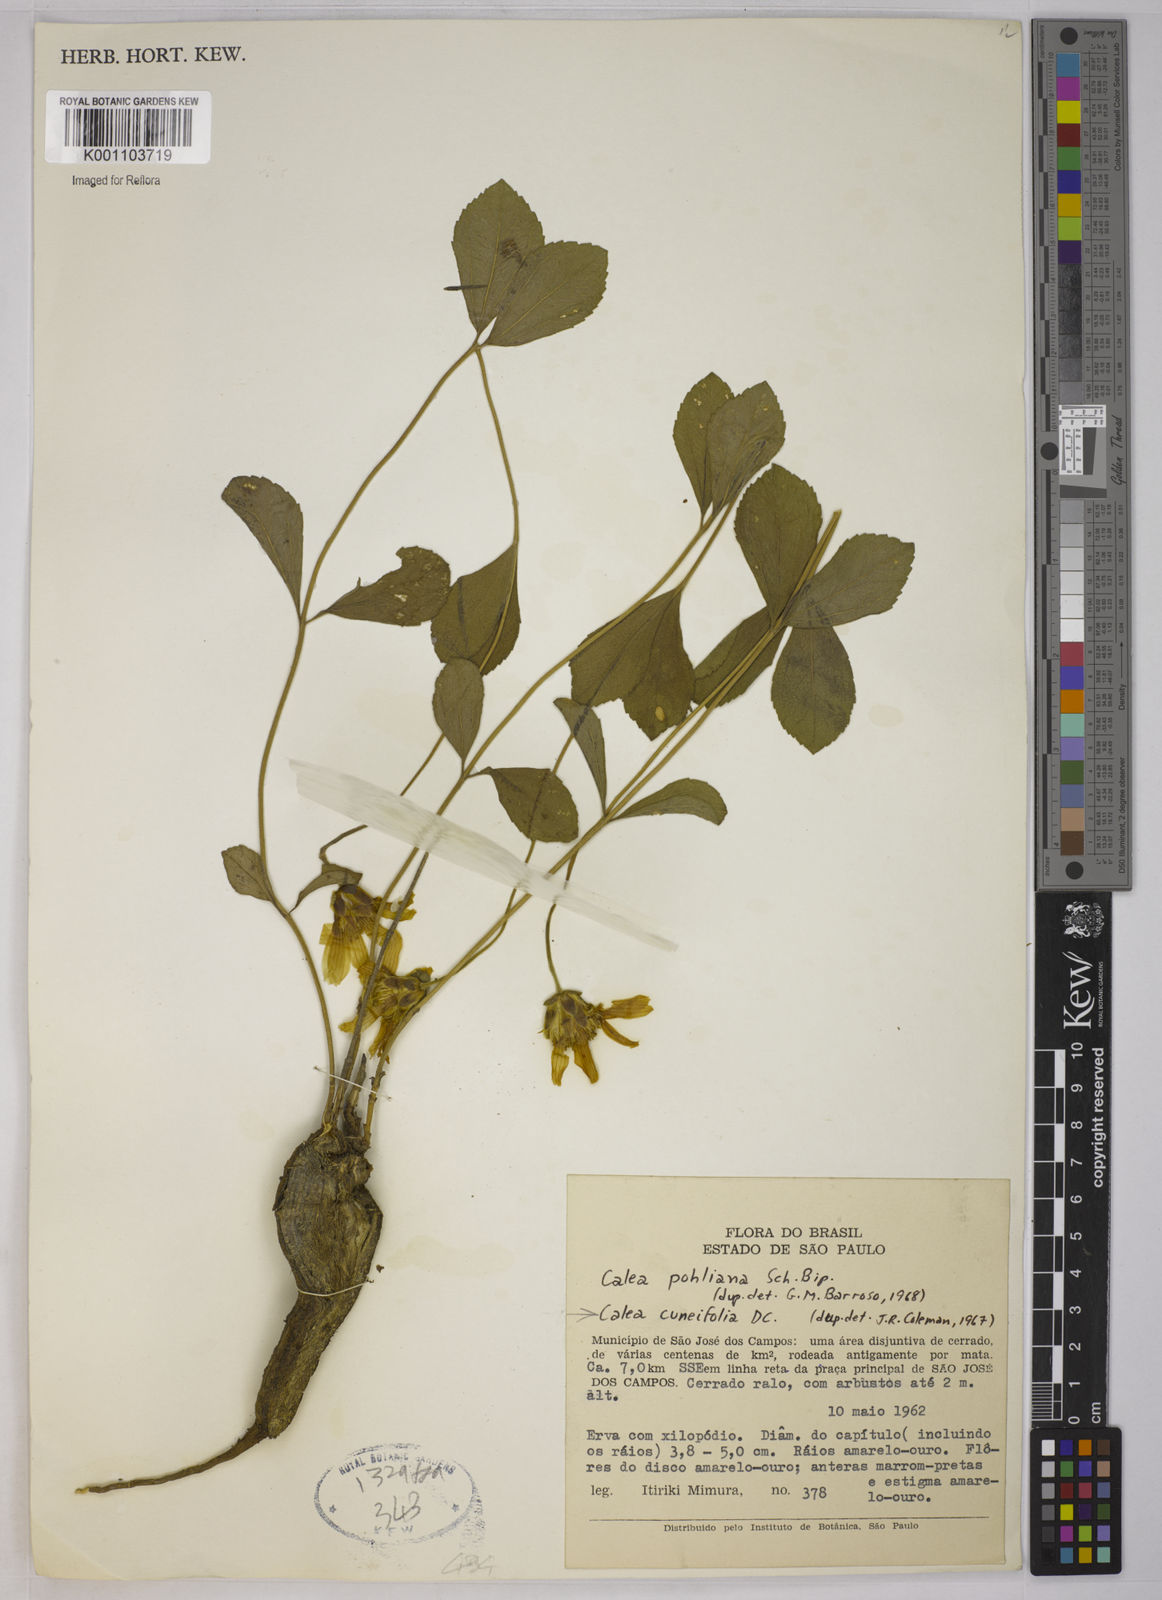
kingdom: Plantae
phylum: Tracheophyta
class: Magnoliopsida
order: Asterales
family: Asteraceae
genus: Calea
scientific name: Calea cuneifolia
